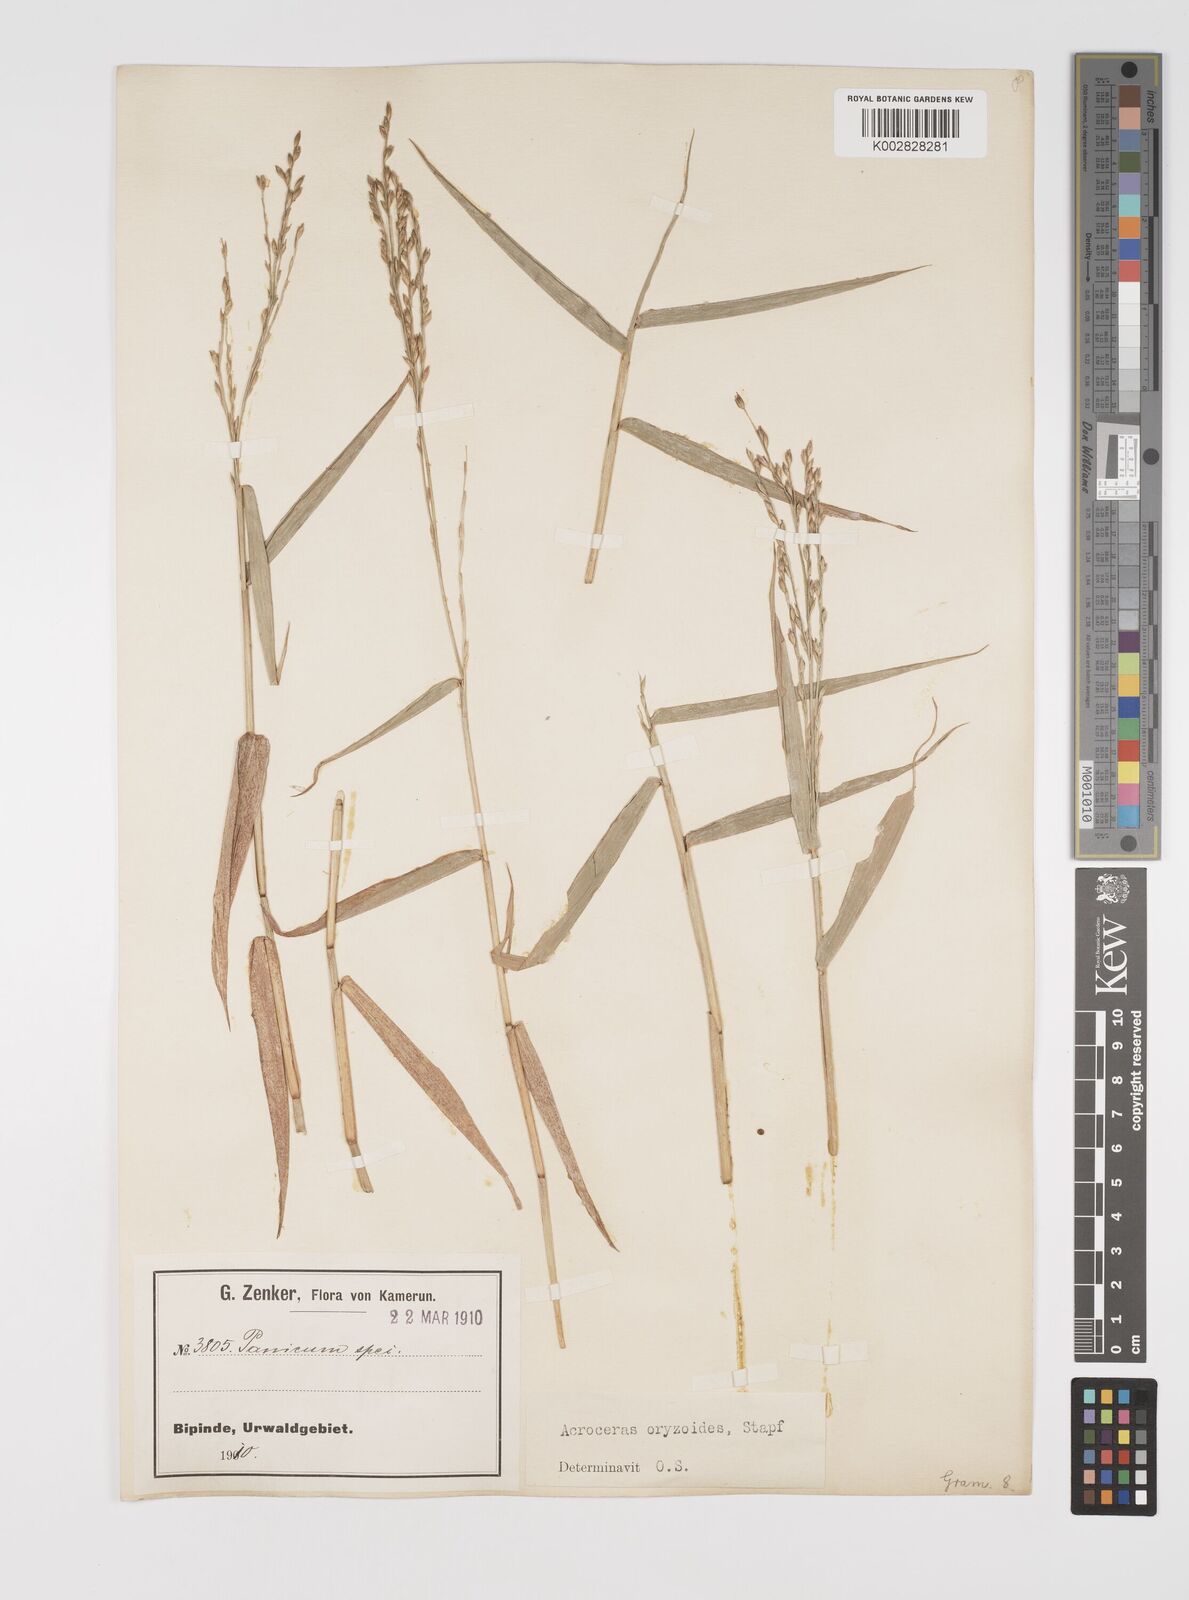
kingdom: Plantae
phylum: Tracheophyta
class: Liliopsida
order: Poales
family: Poaceae
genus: Acroceras
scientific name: Acroceras zizanioides
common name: Oat grass
